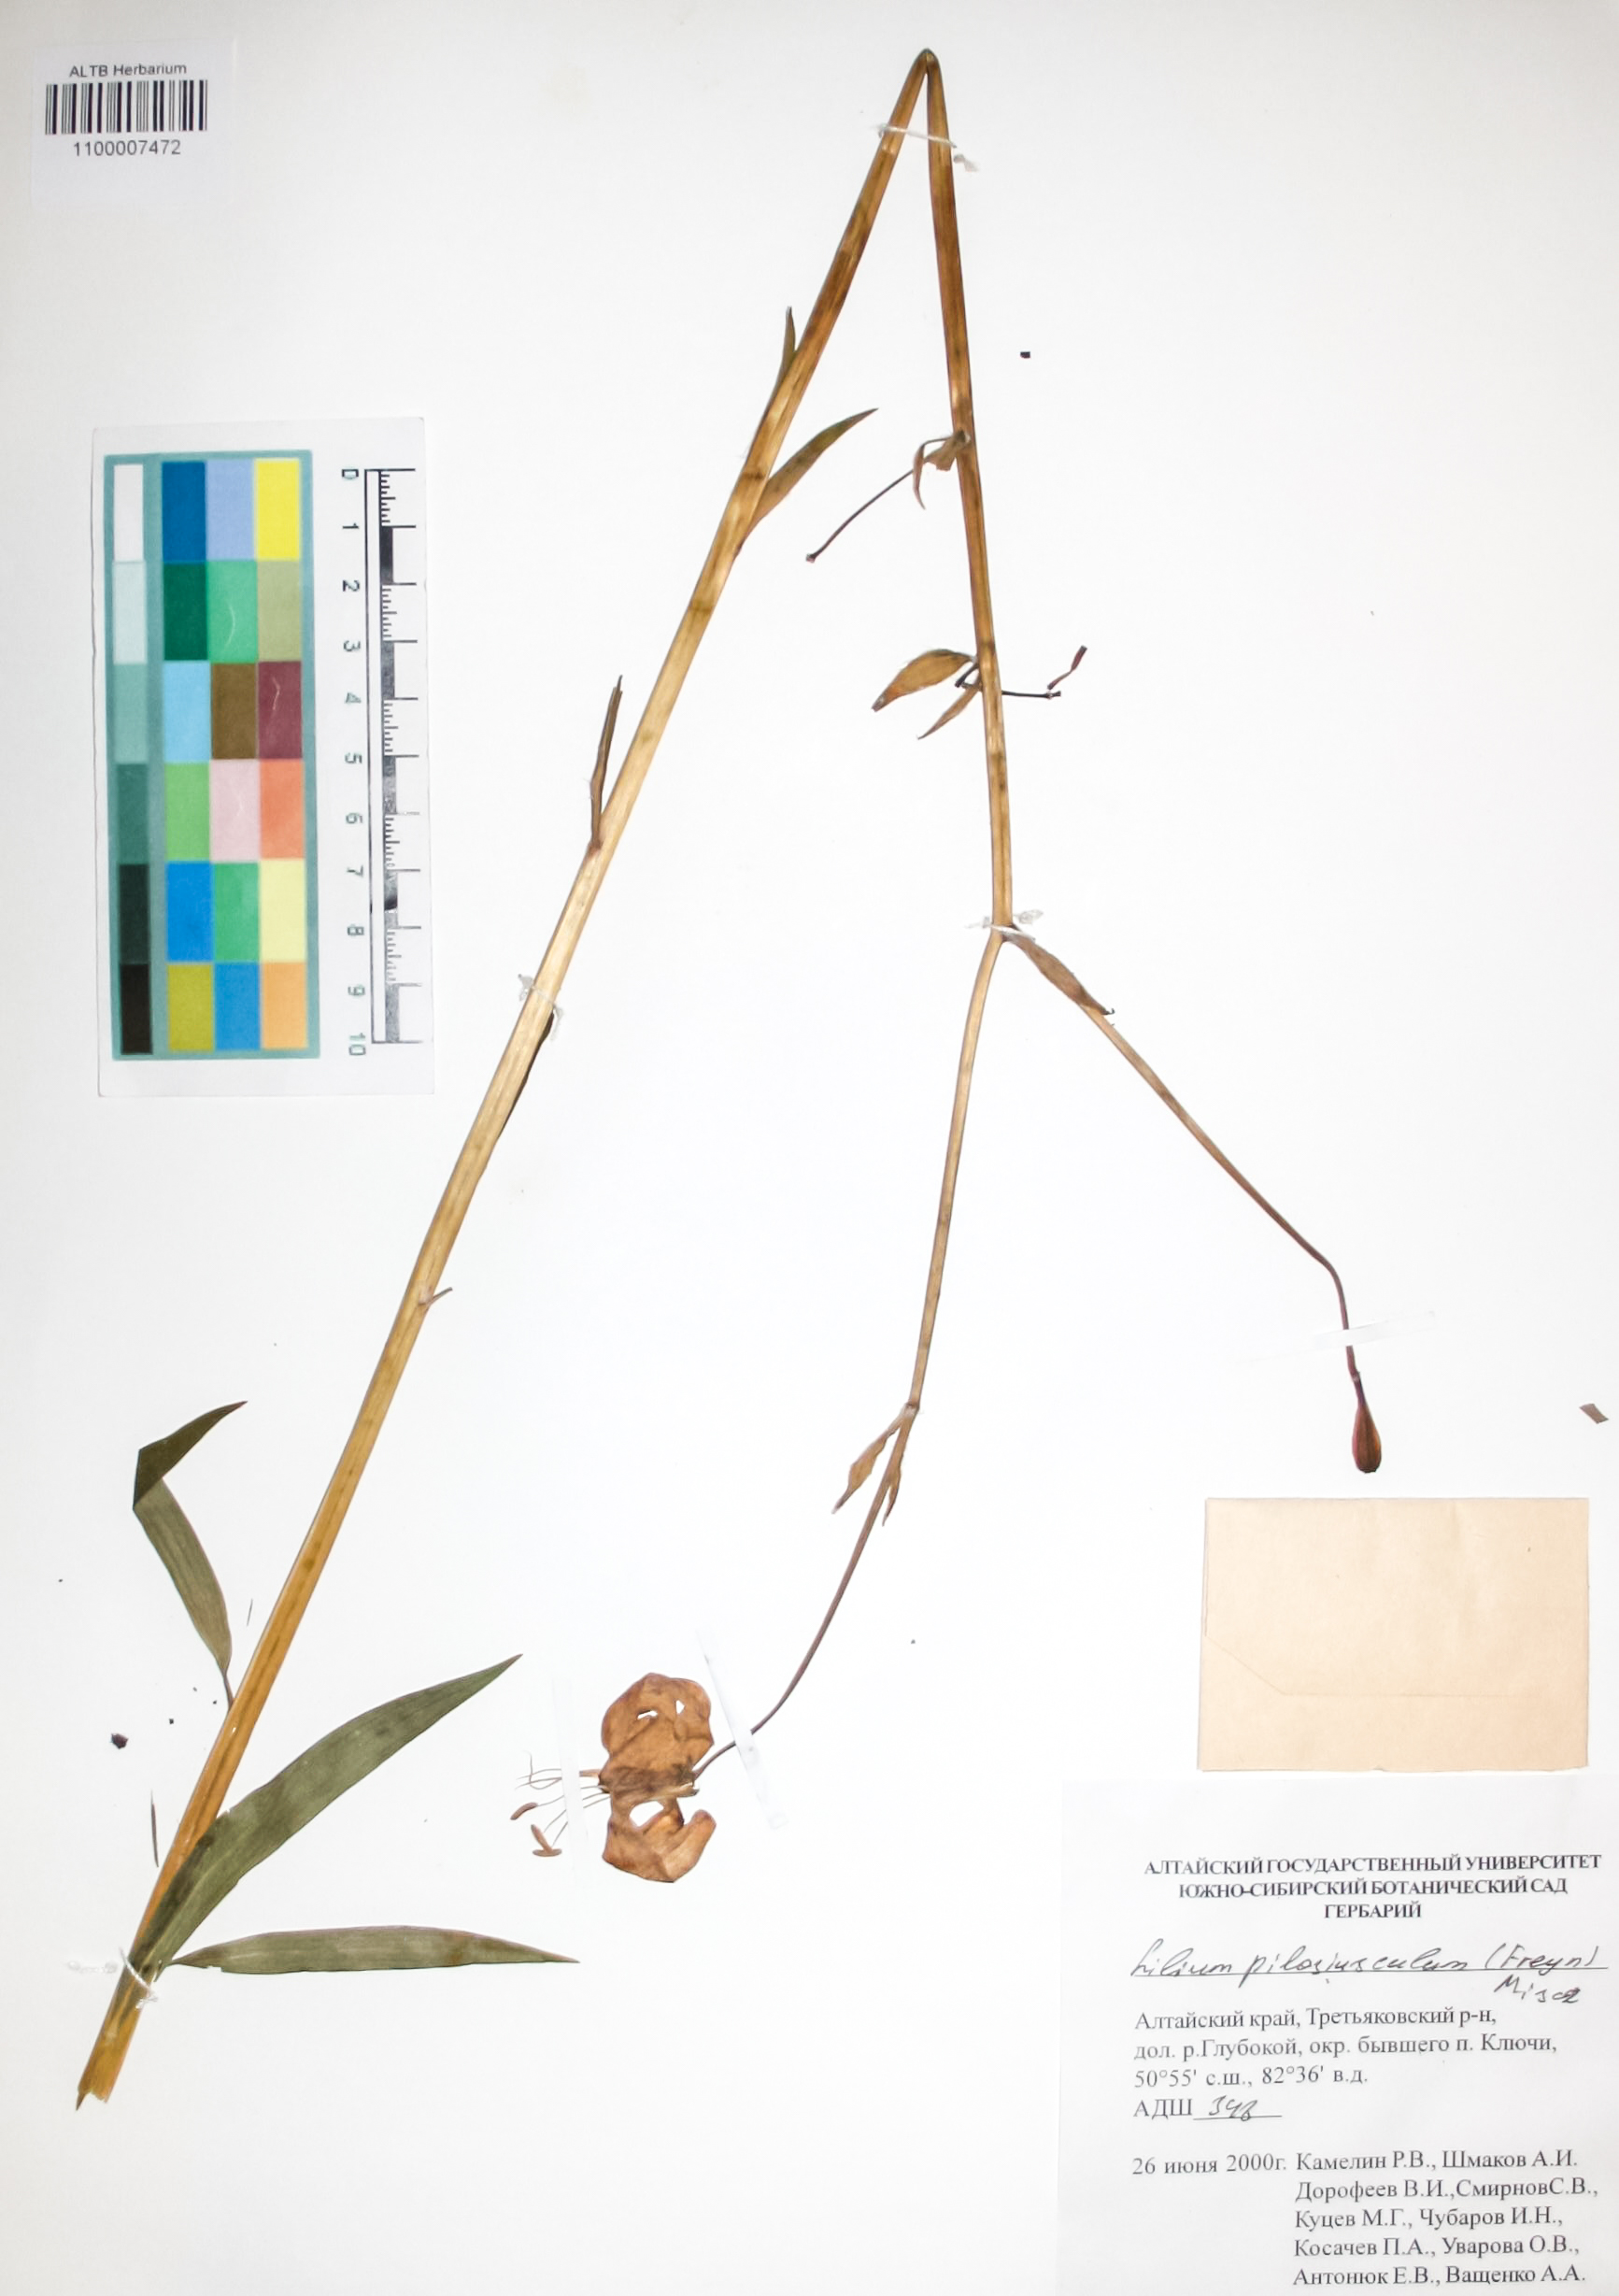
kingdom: Plantae
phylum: Tracheophyta
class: Liliopsida
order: Liliales
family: Liliaceae
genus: Lilium
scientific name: Lilium martagon
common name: Martagon lily
